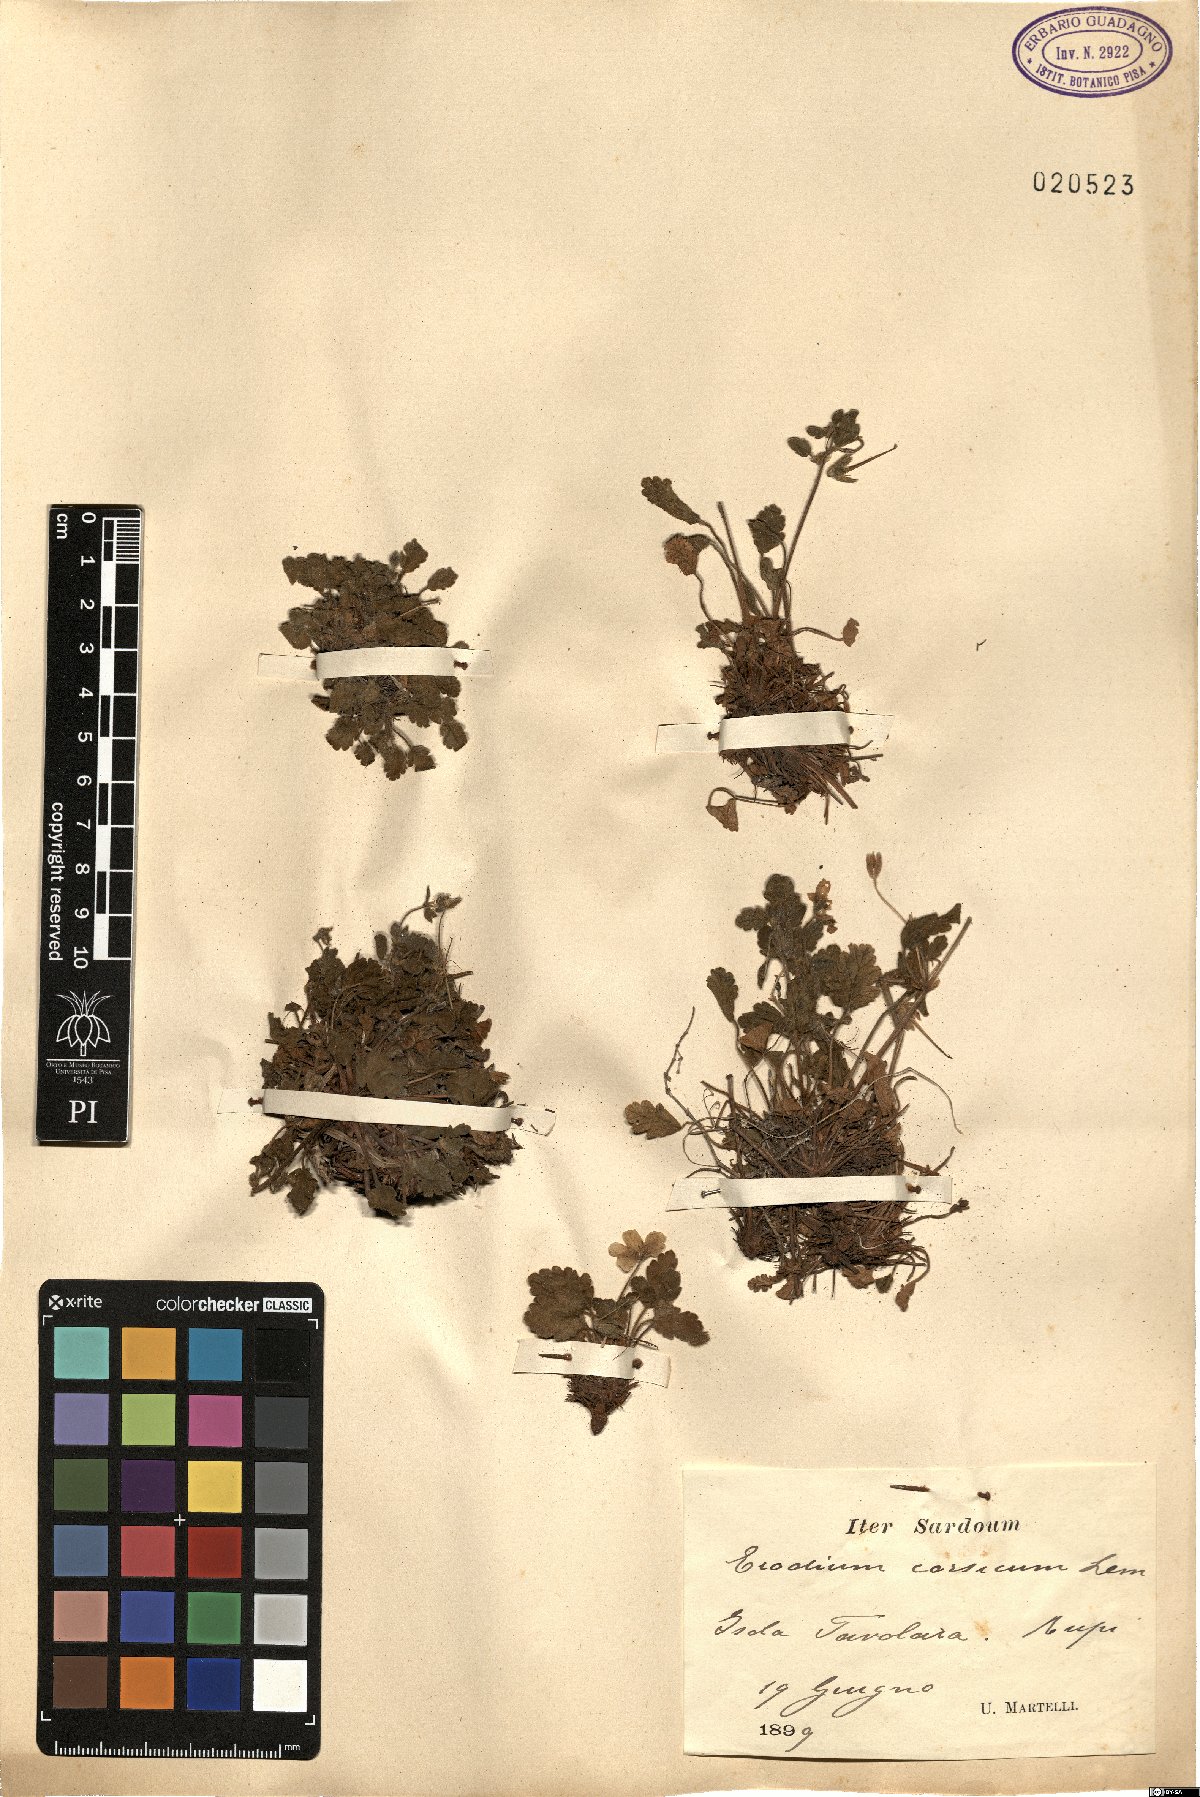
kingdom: Plantae
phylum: Tracheophyta
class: Magnoliopsida
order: Geraniales
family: Geraniaceae
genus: Erodium
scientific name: Erodium corsicum
